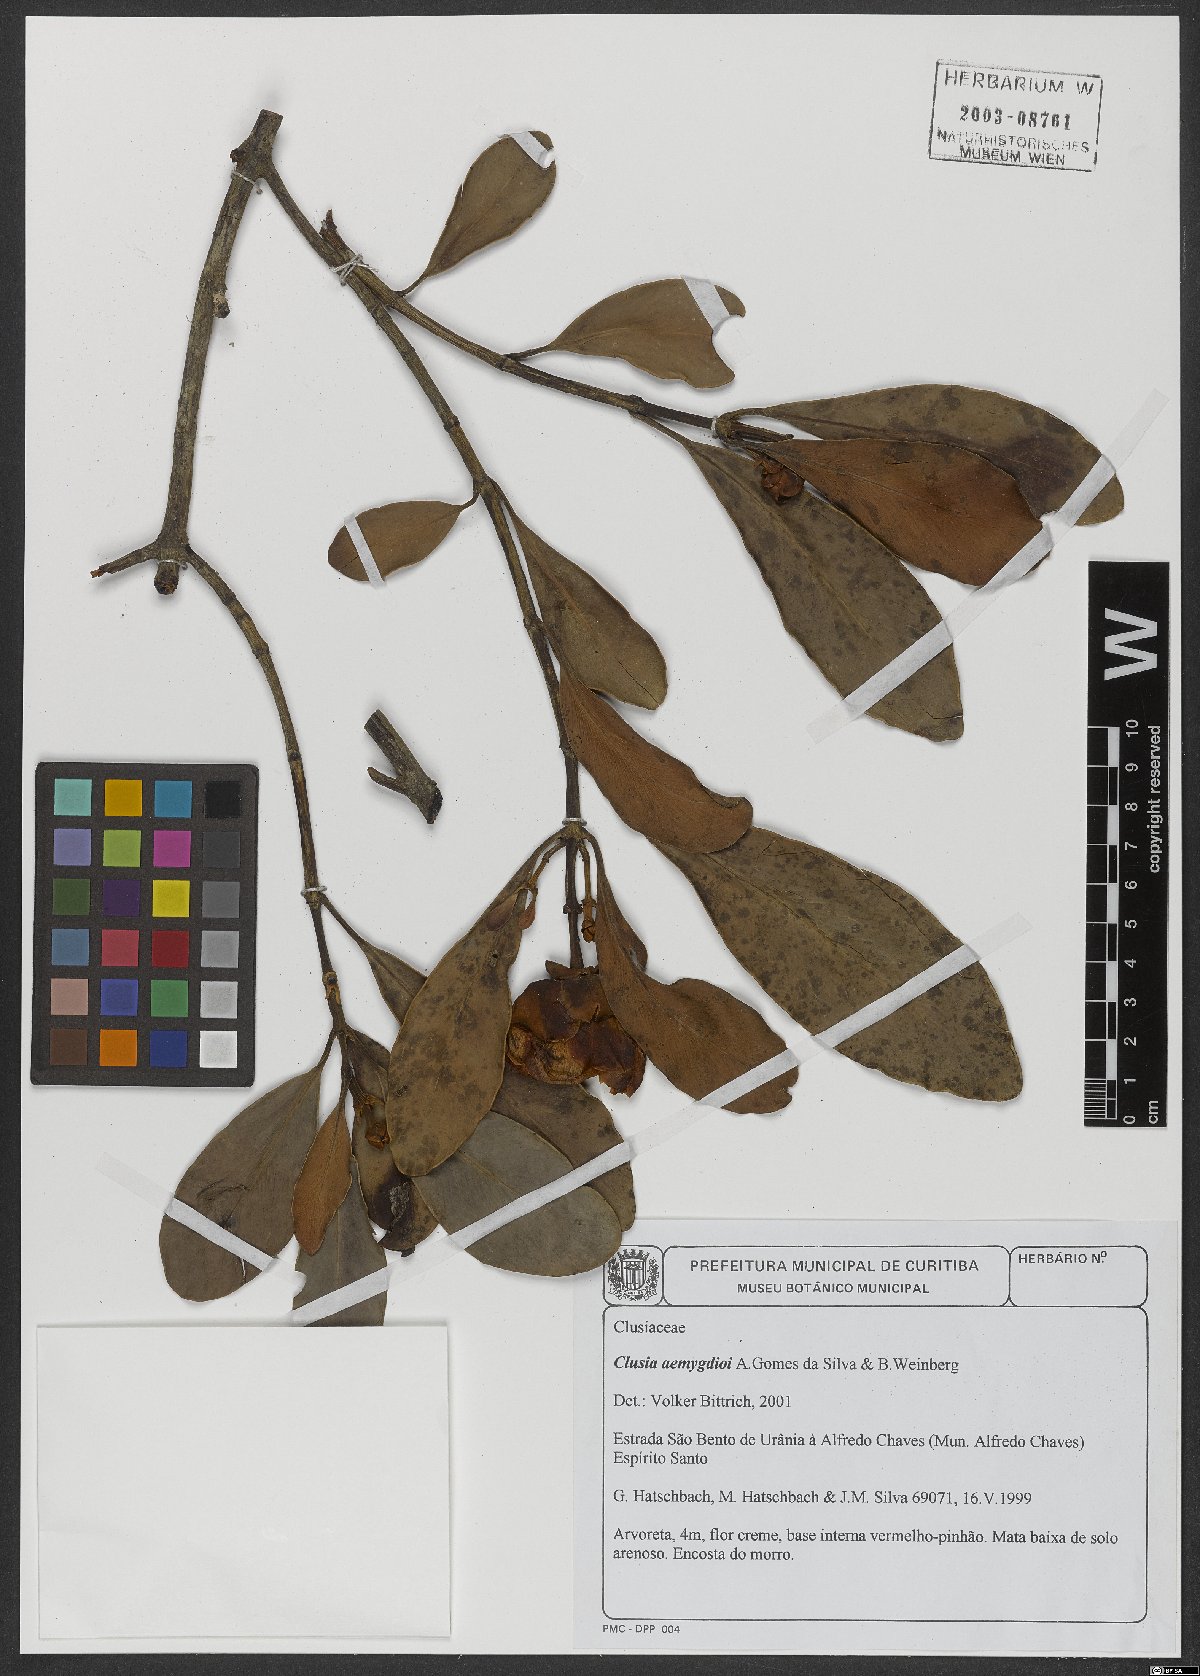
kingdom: Plantae
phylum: Tracheophyta
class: Magnoliopsida
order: Malpighiales
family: Clusiaceae
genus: Clusia
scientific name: Clusia aemygdioi
